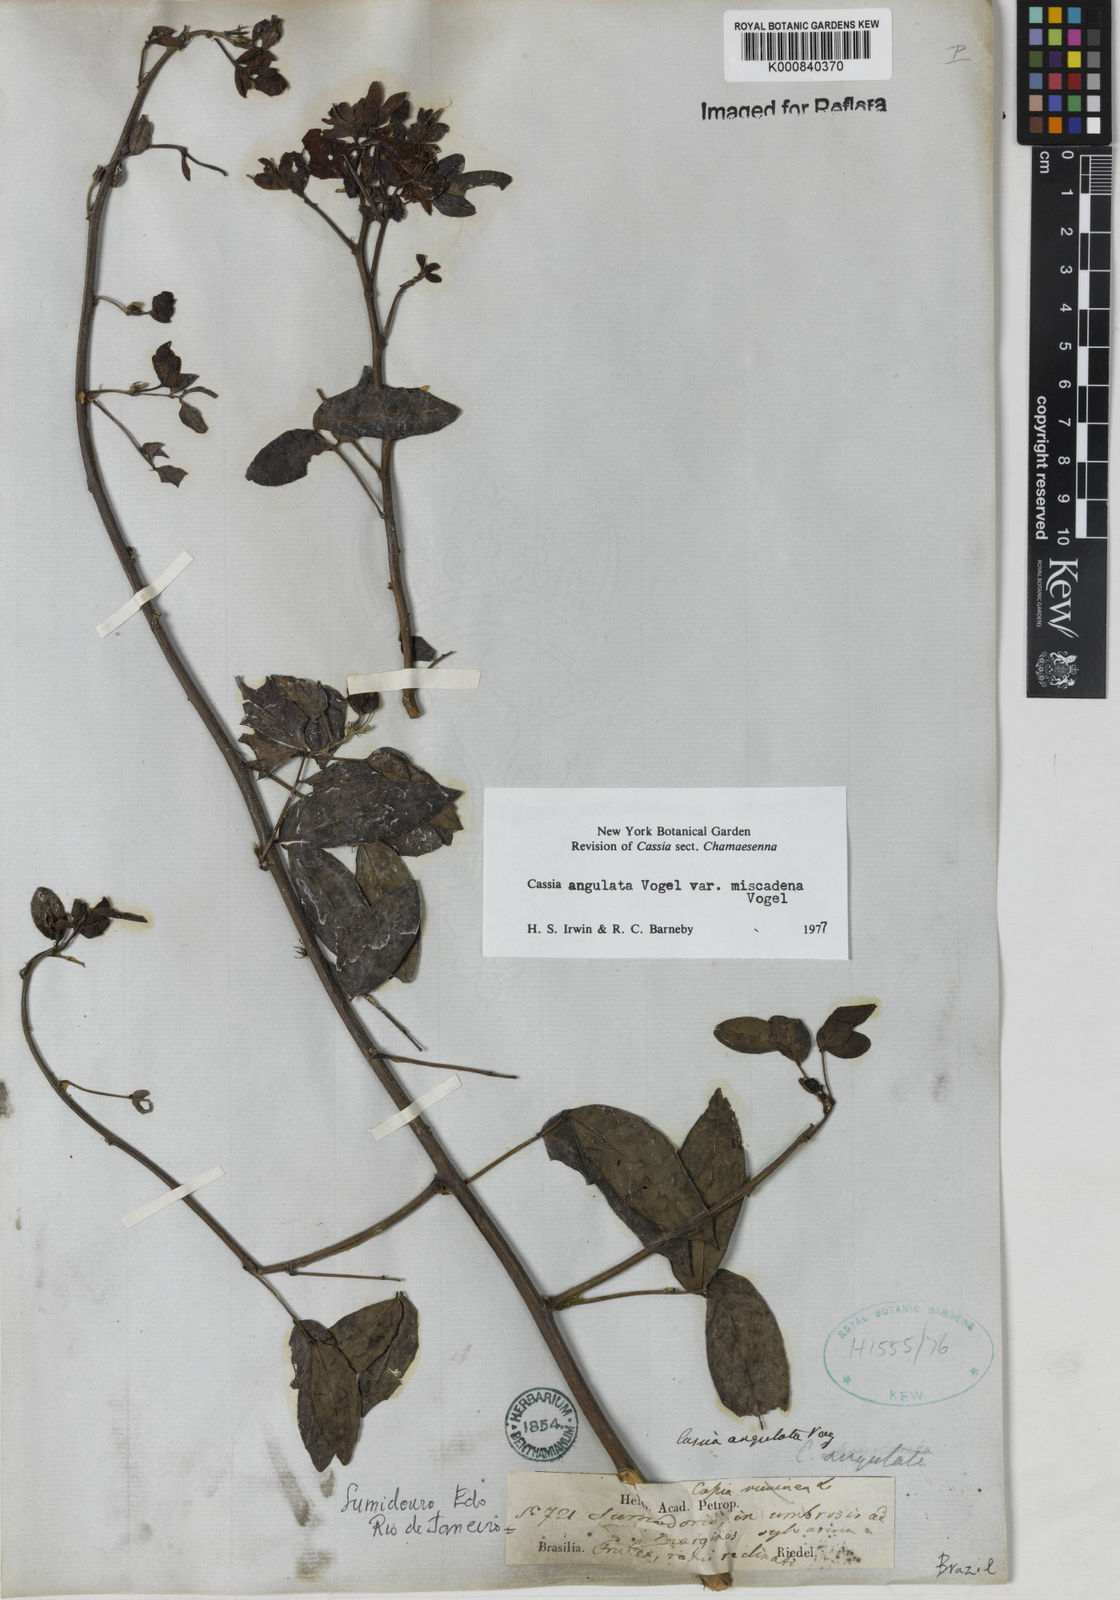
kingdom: Plantae
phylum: Tracheophyta
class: Magnoliopsida
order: Fabales
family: Fabaceae
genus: Senna
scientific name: Senna angulata
